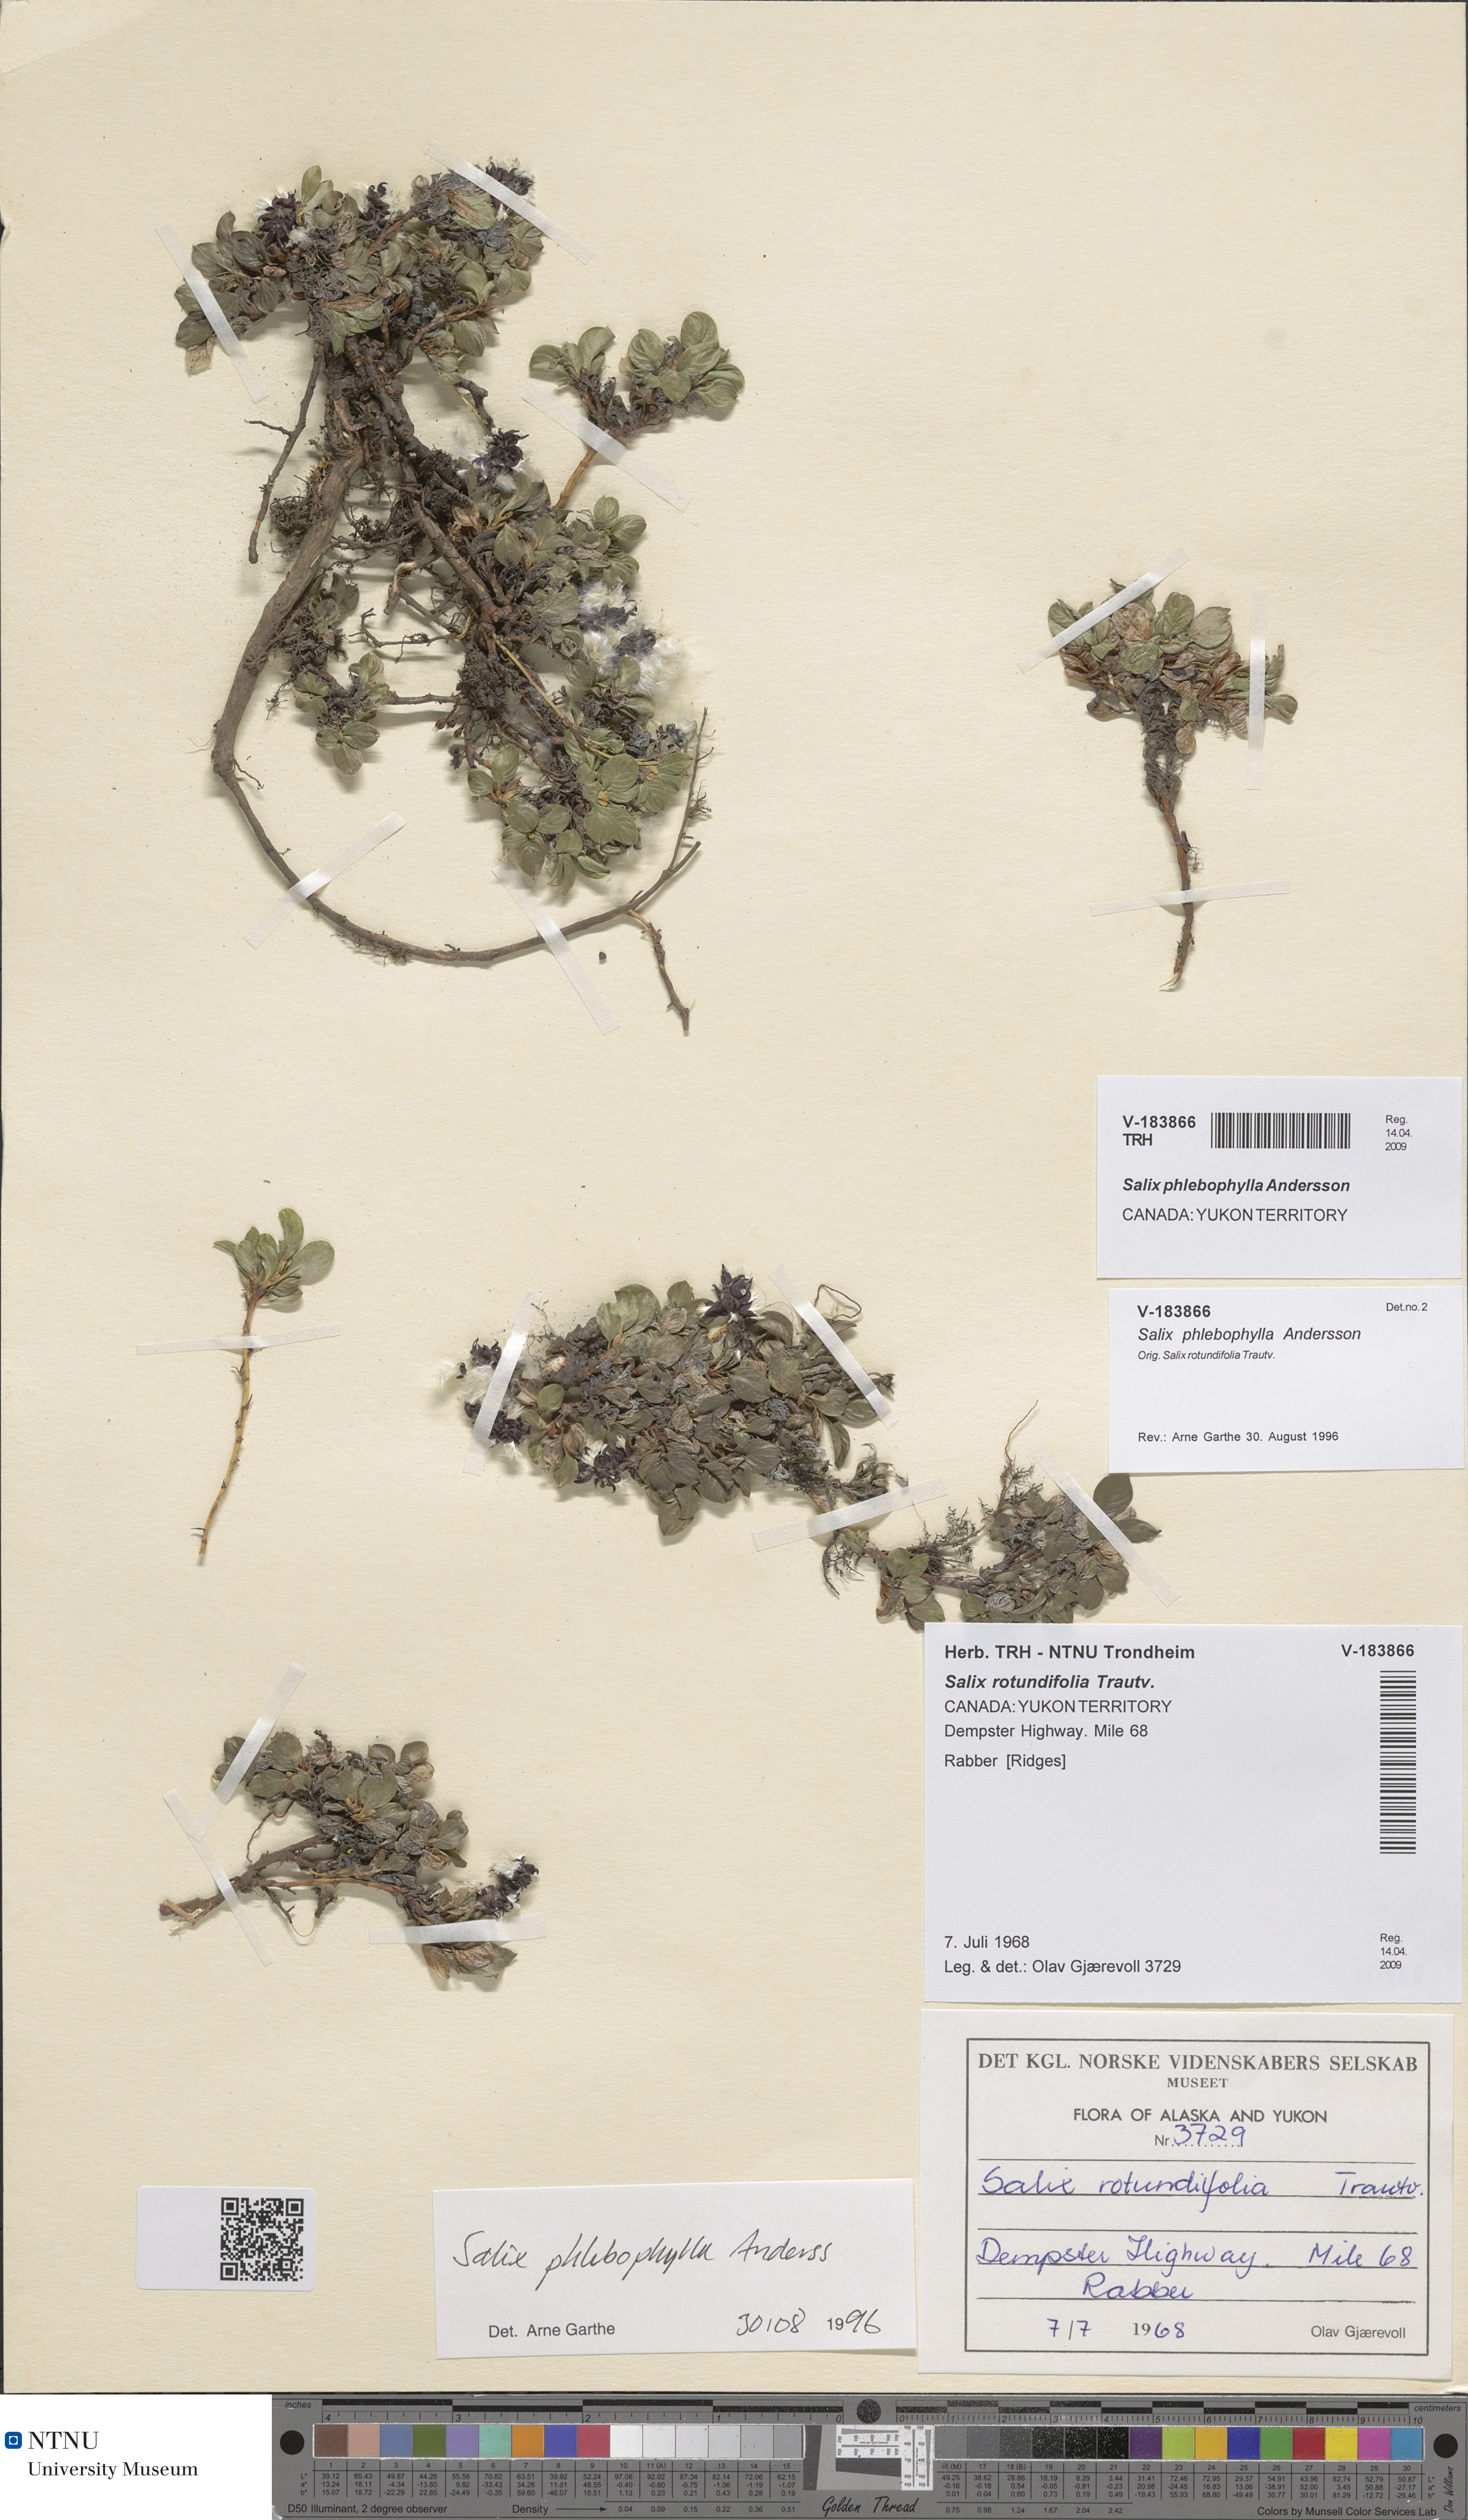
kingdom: Plantae
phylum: Tracheophyta
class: Magnoliopsida
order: Malpighiales
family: Salicaceae
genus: Salix
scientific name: Salix phlebophylla
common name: Skeleton-leaved willow
